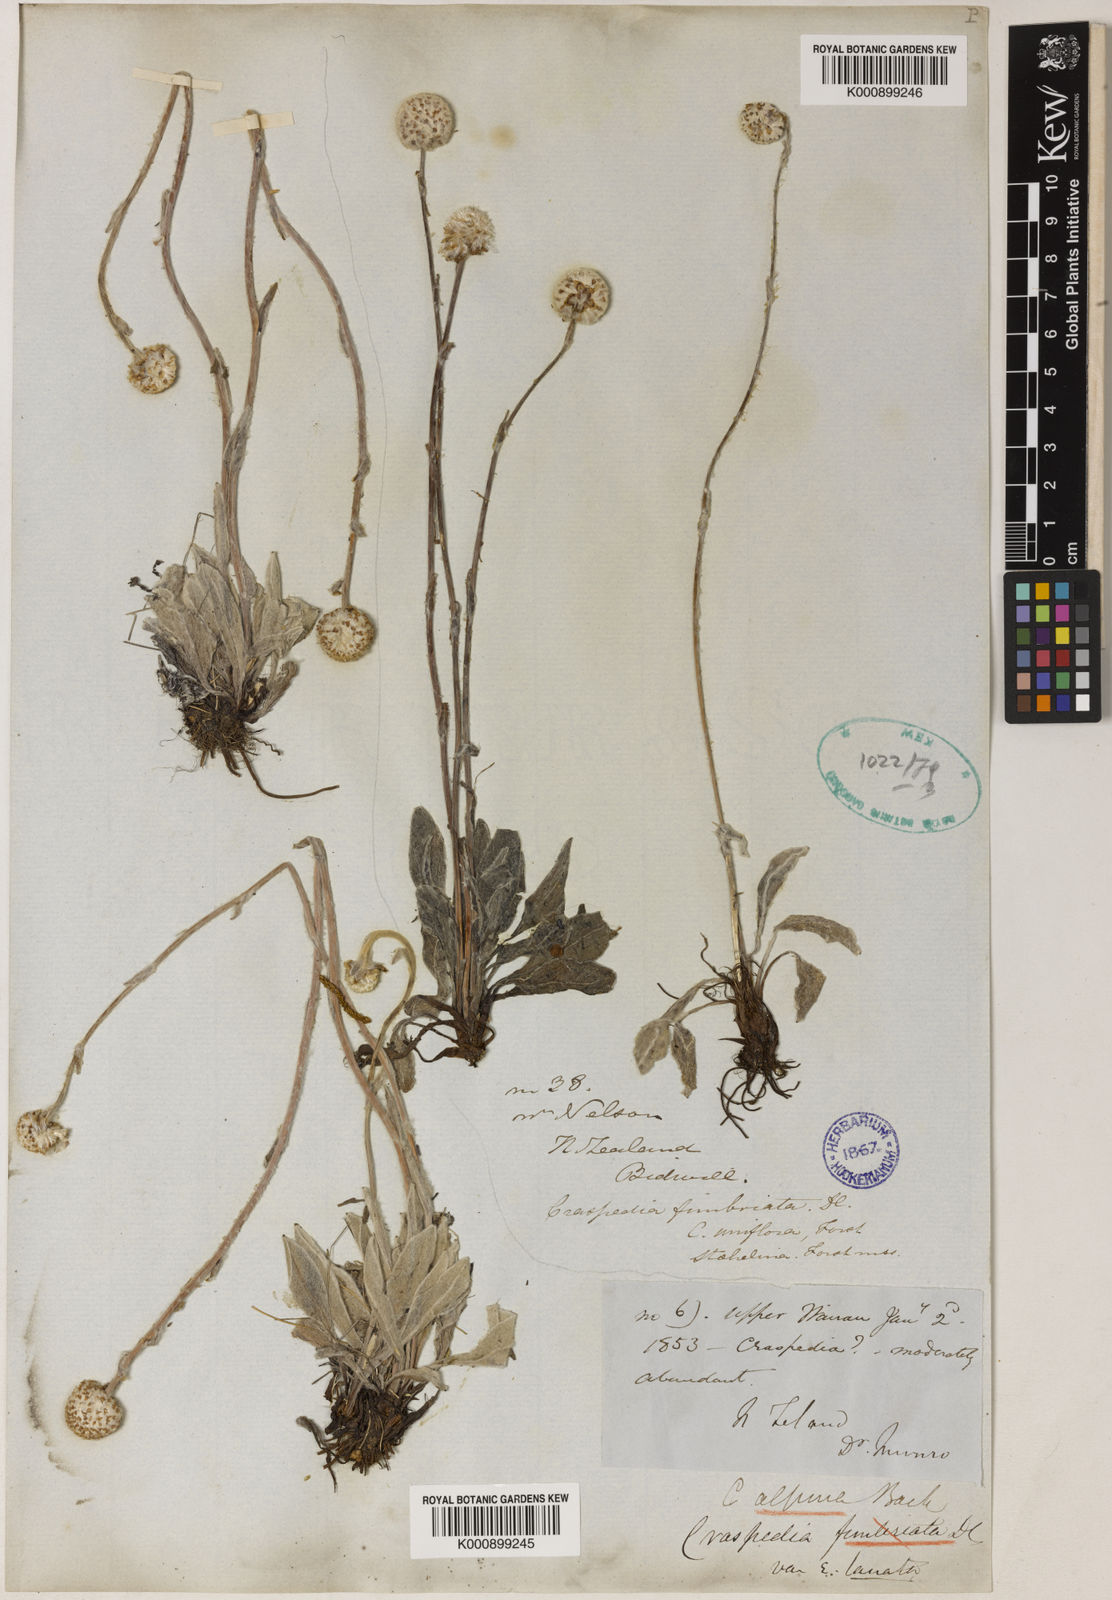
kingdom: Plantae
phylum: Tracheophyta
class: Magnoliopsida
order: Asterales
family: Asteraceae
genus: Craspedia
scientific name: Craspedia uniflora
